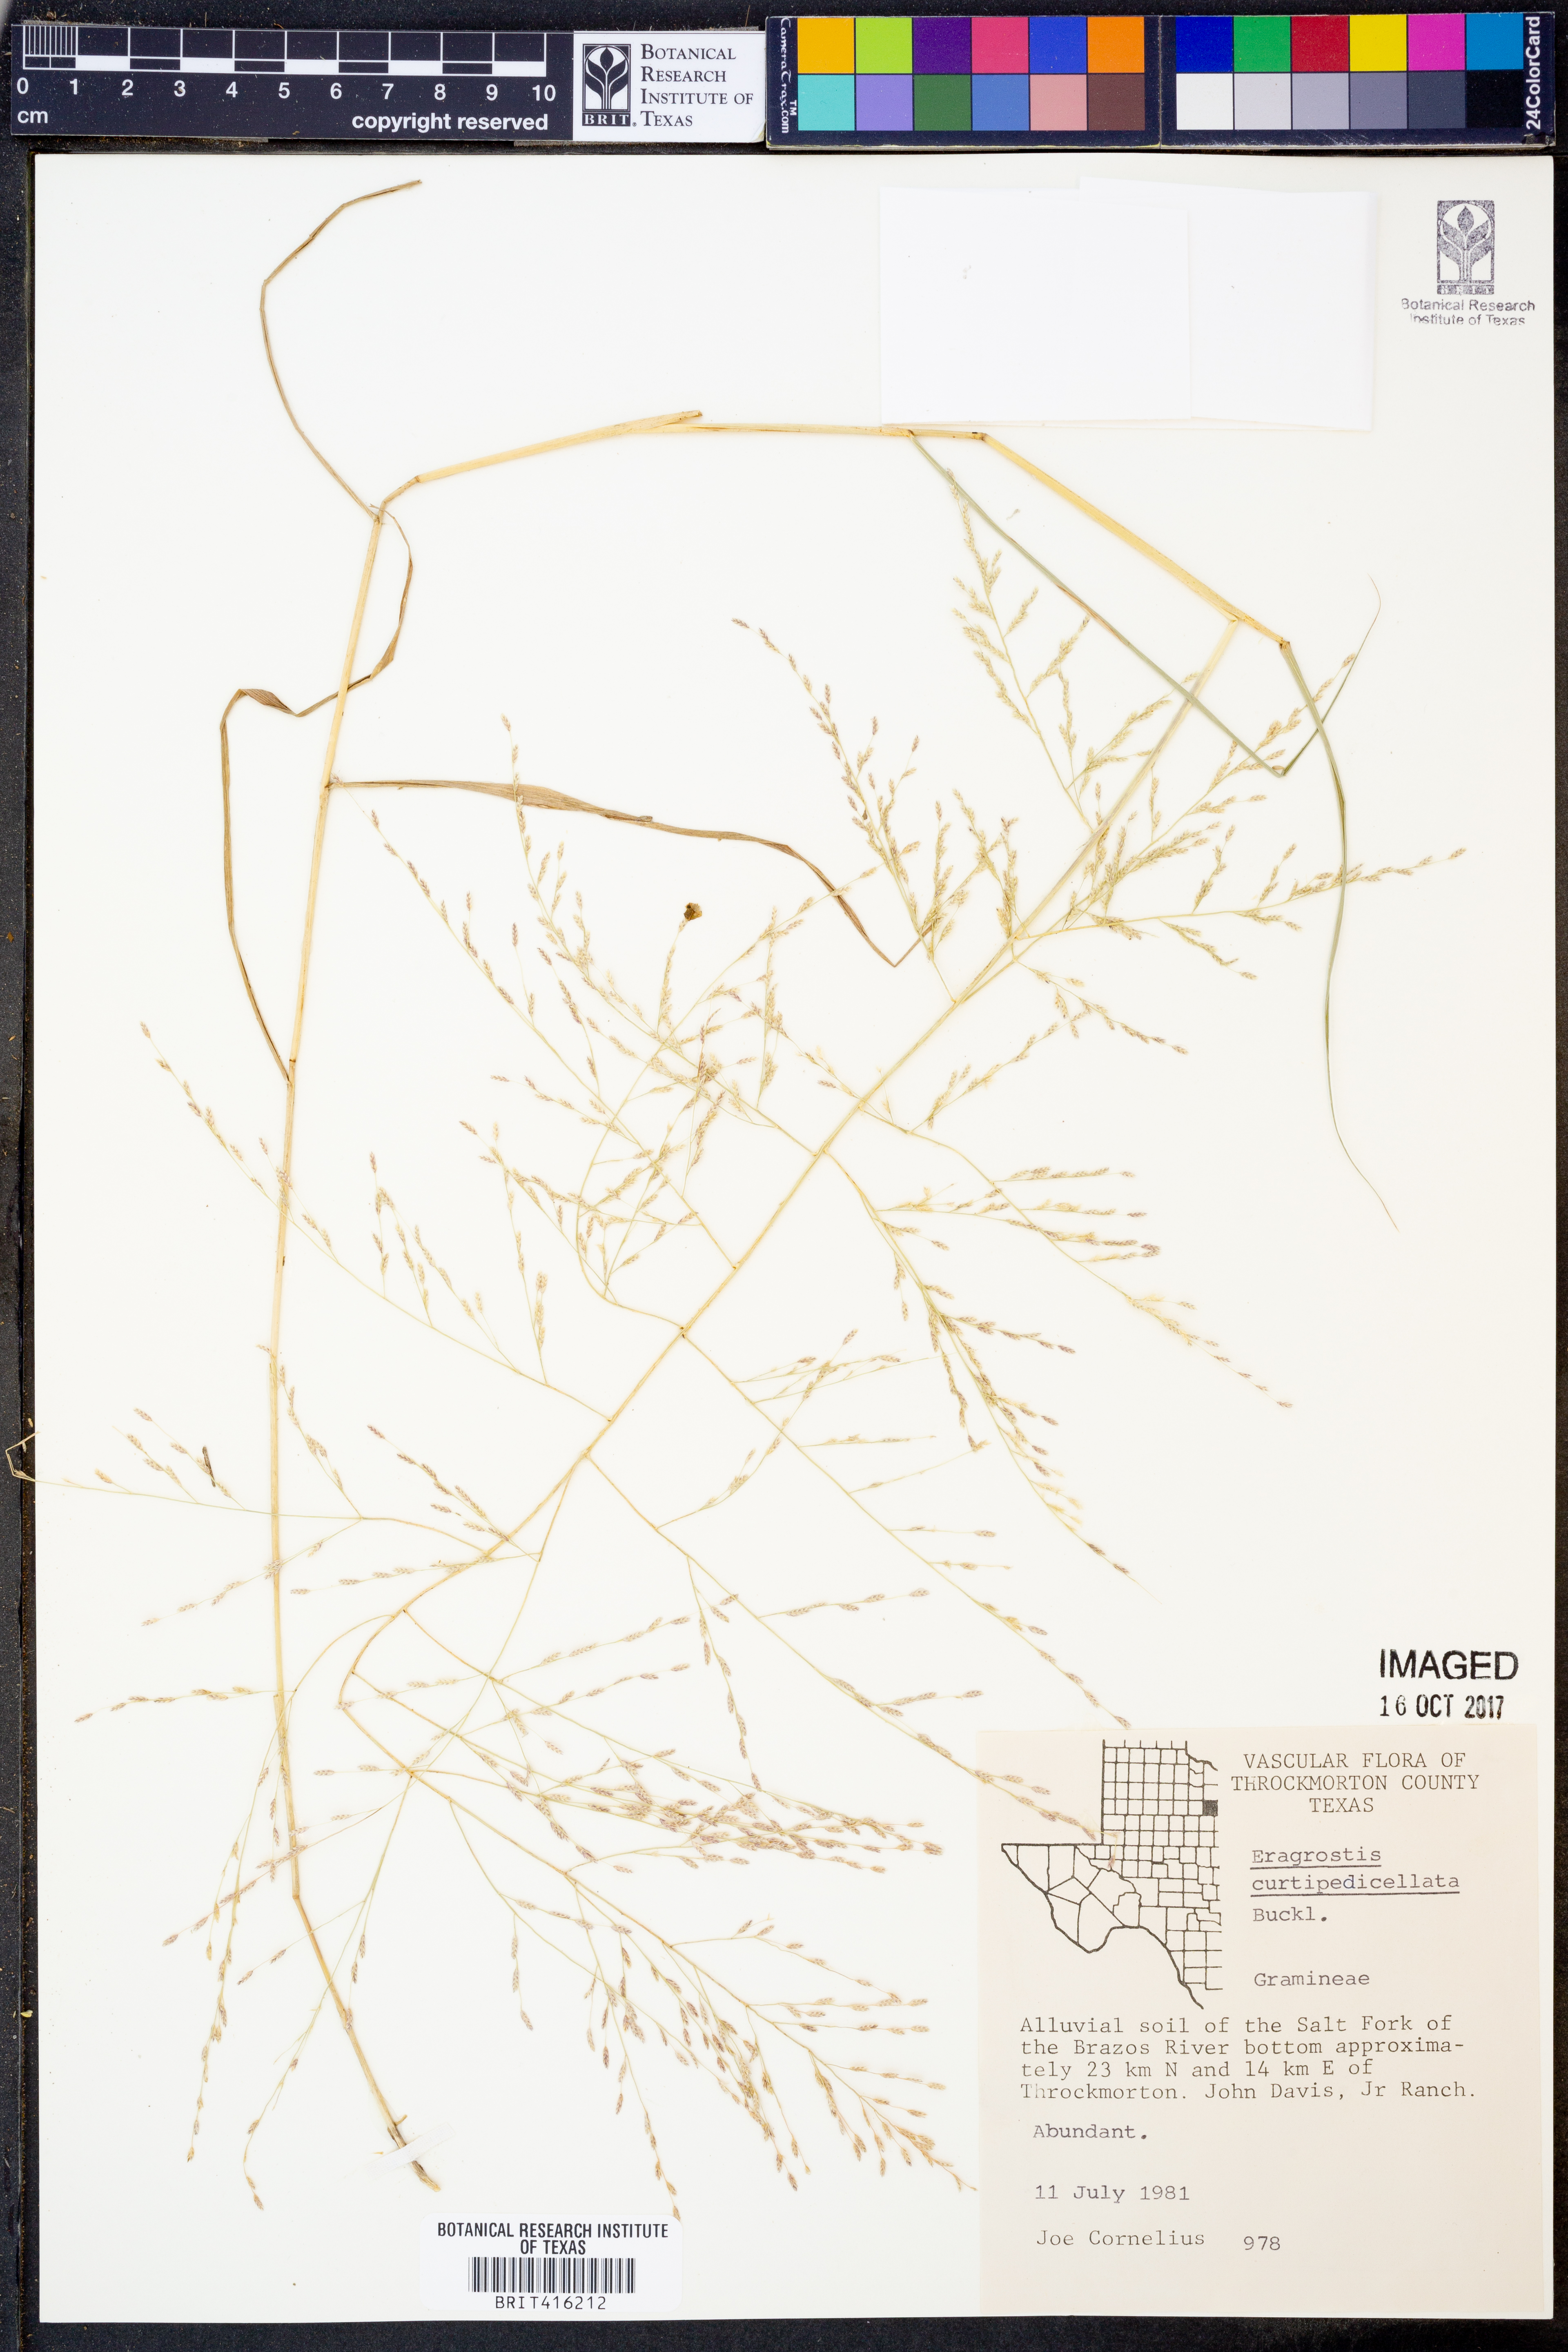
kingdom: Plantae
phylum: Tracheophyta
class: Liliopsida
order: Poales
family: Poaceae
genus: Eragrostis
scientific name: Eragrostis curtipedicellata
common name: Gummy love grass
